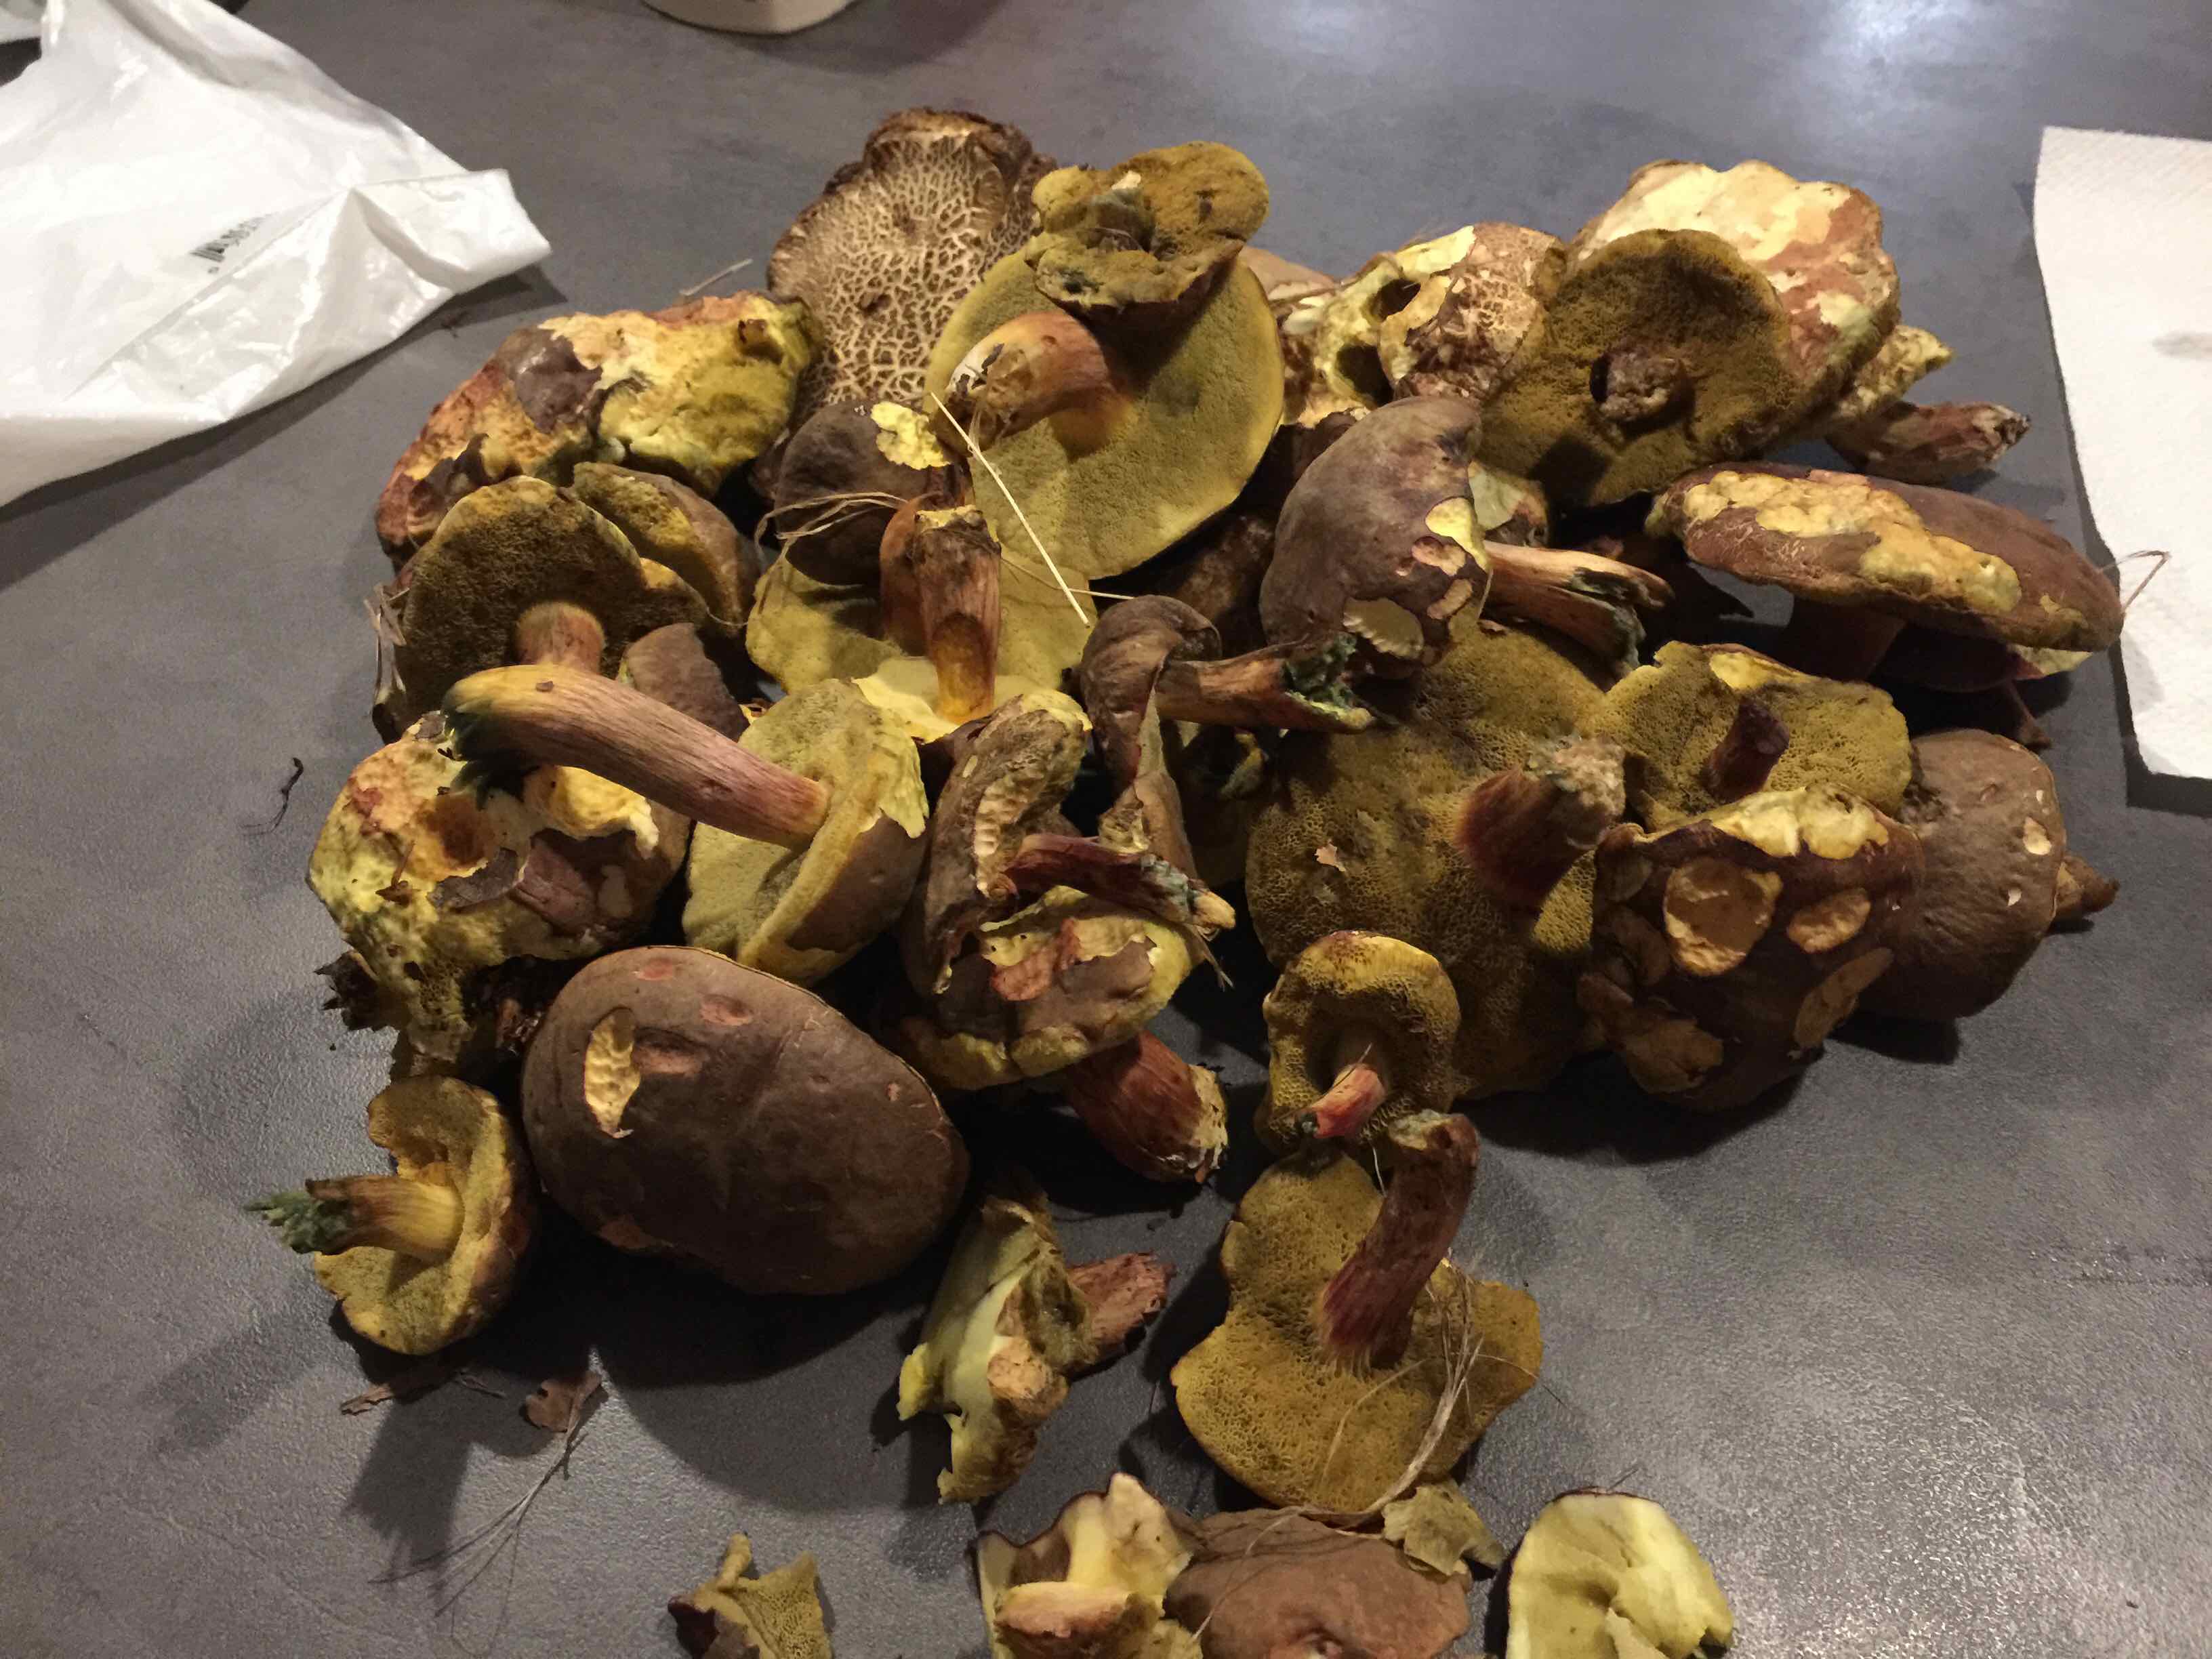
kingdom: Fungi
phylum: Basidiomycota
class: Agaricomycetes
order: Boletales
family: Boletaceae
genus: Xerocomellus
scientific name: Xerocomellus
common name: dværgrørhat
